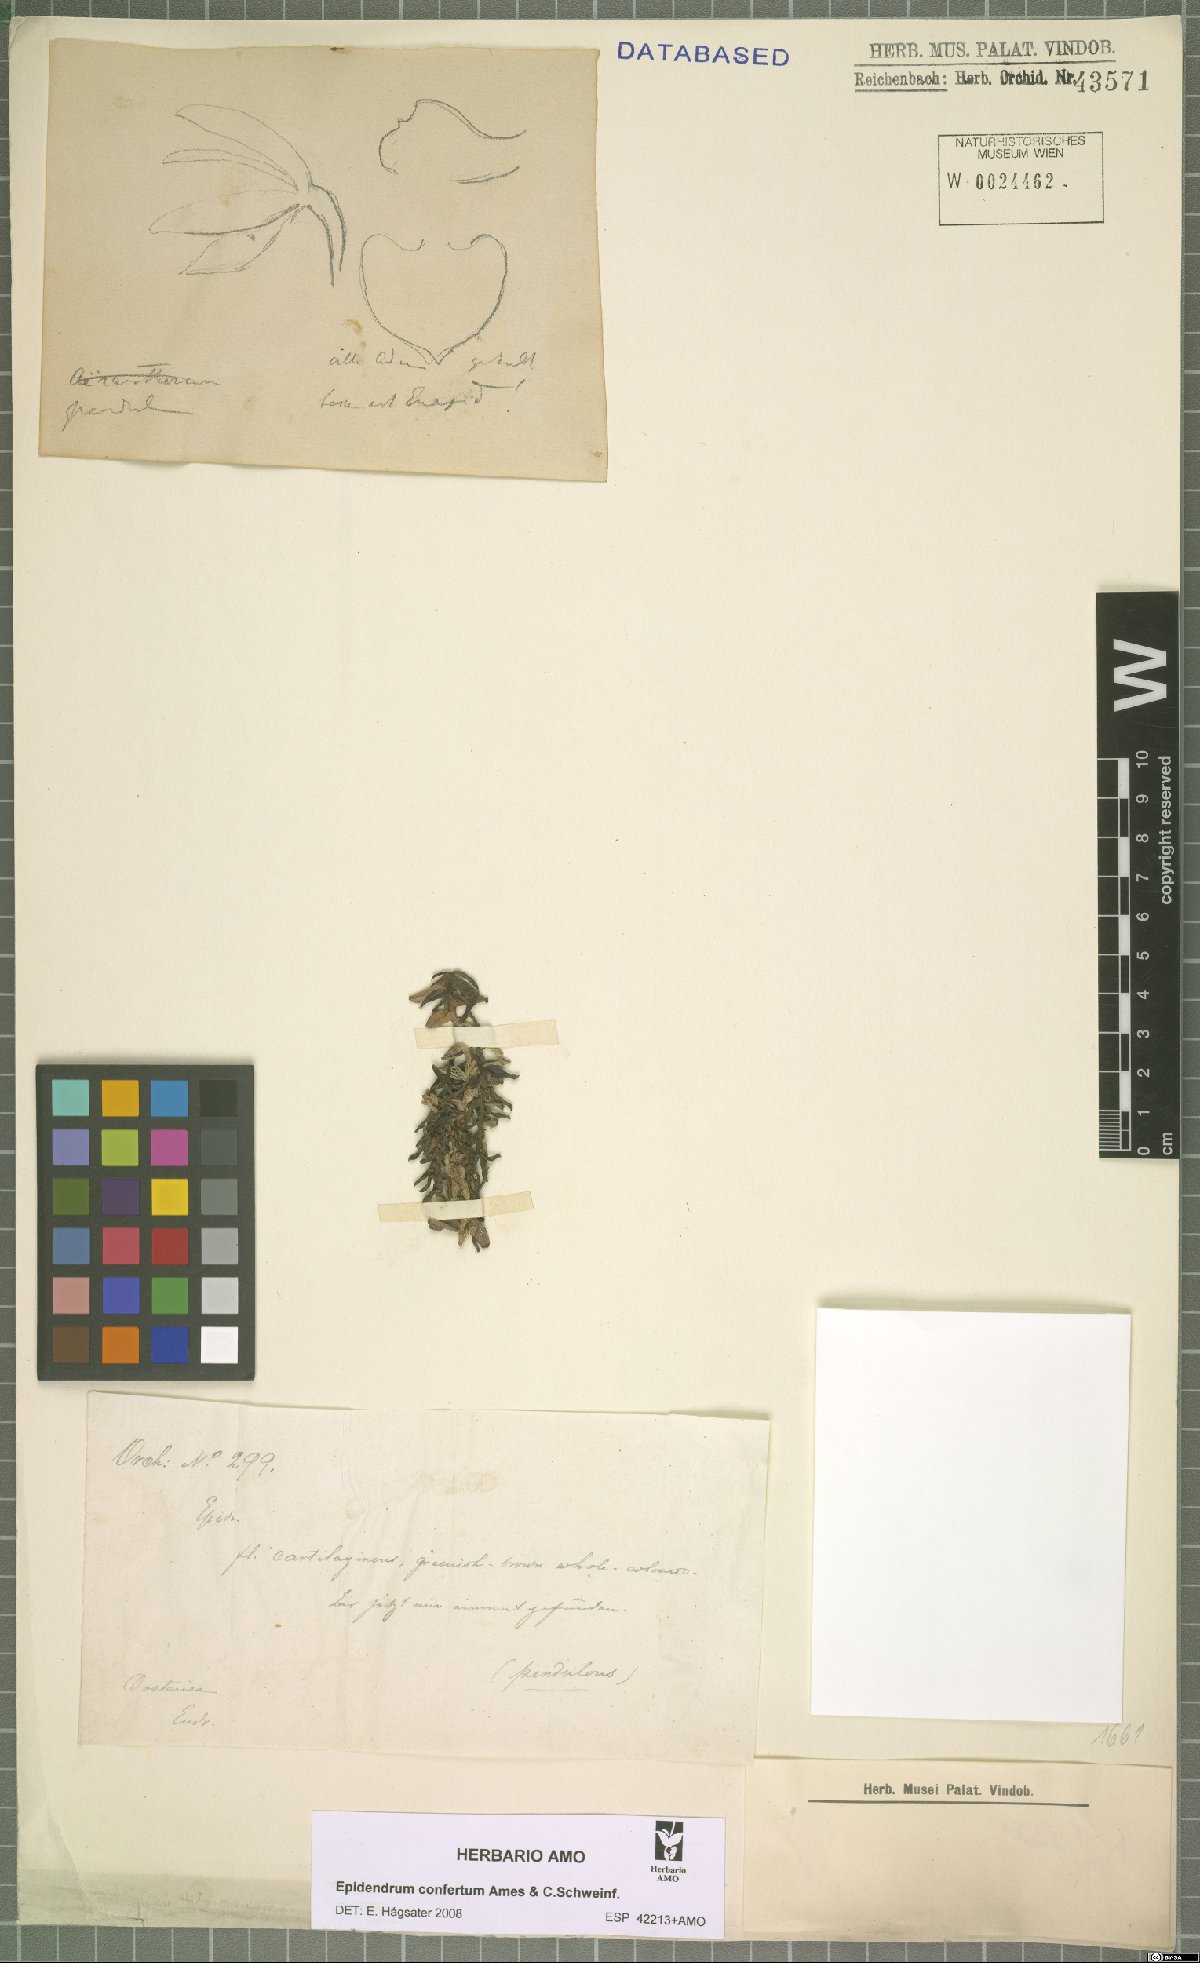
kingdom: Plantae
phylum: Tracheophyta
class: Liliopsida
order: Asparagales
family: Orchidaceae
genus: Epidendrum
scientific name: Epidendrum confertum
